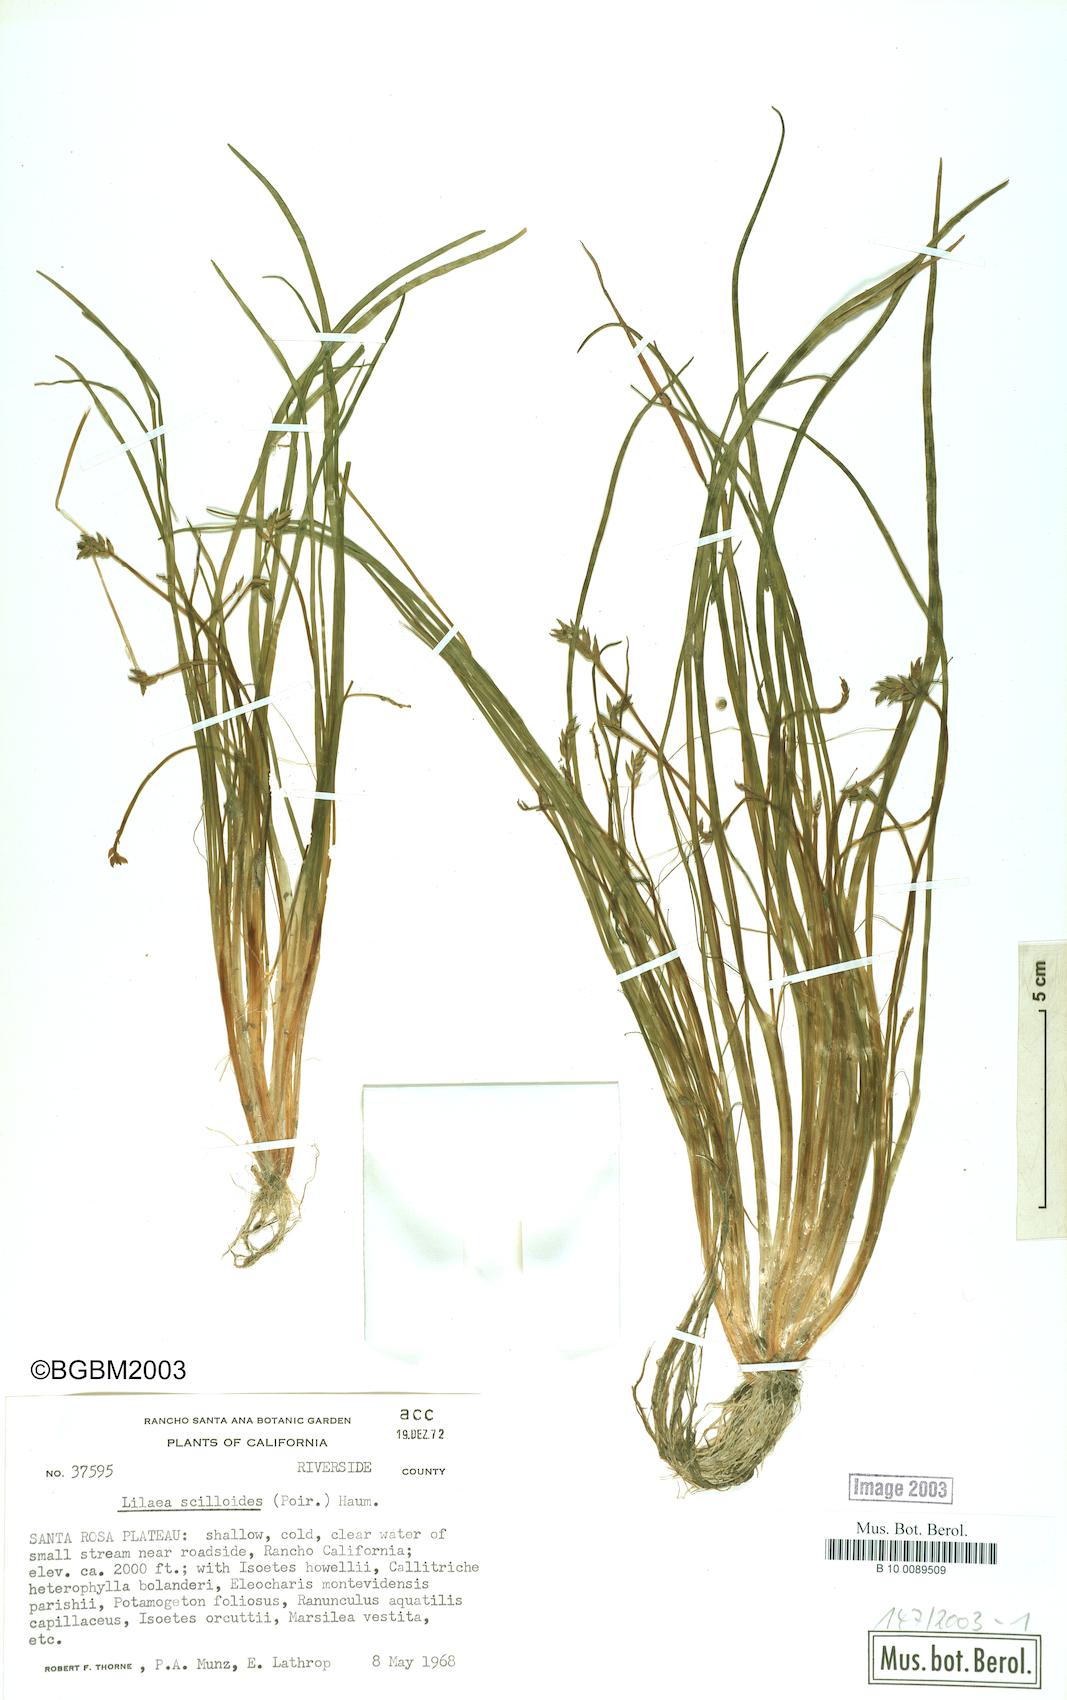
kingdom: Plantae
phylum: Tracheophyta
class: Liliopsida
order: Alismatales
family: Juncaginaceae
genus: Triglochin
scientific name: Triglochin scilloides
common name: Awl-leaved lilaea
